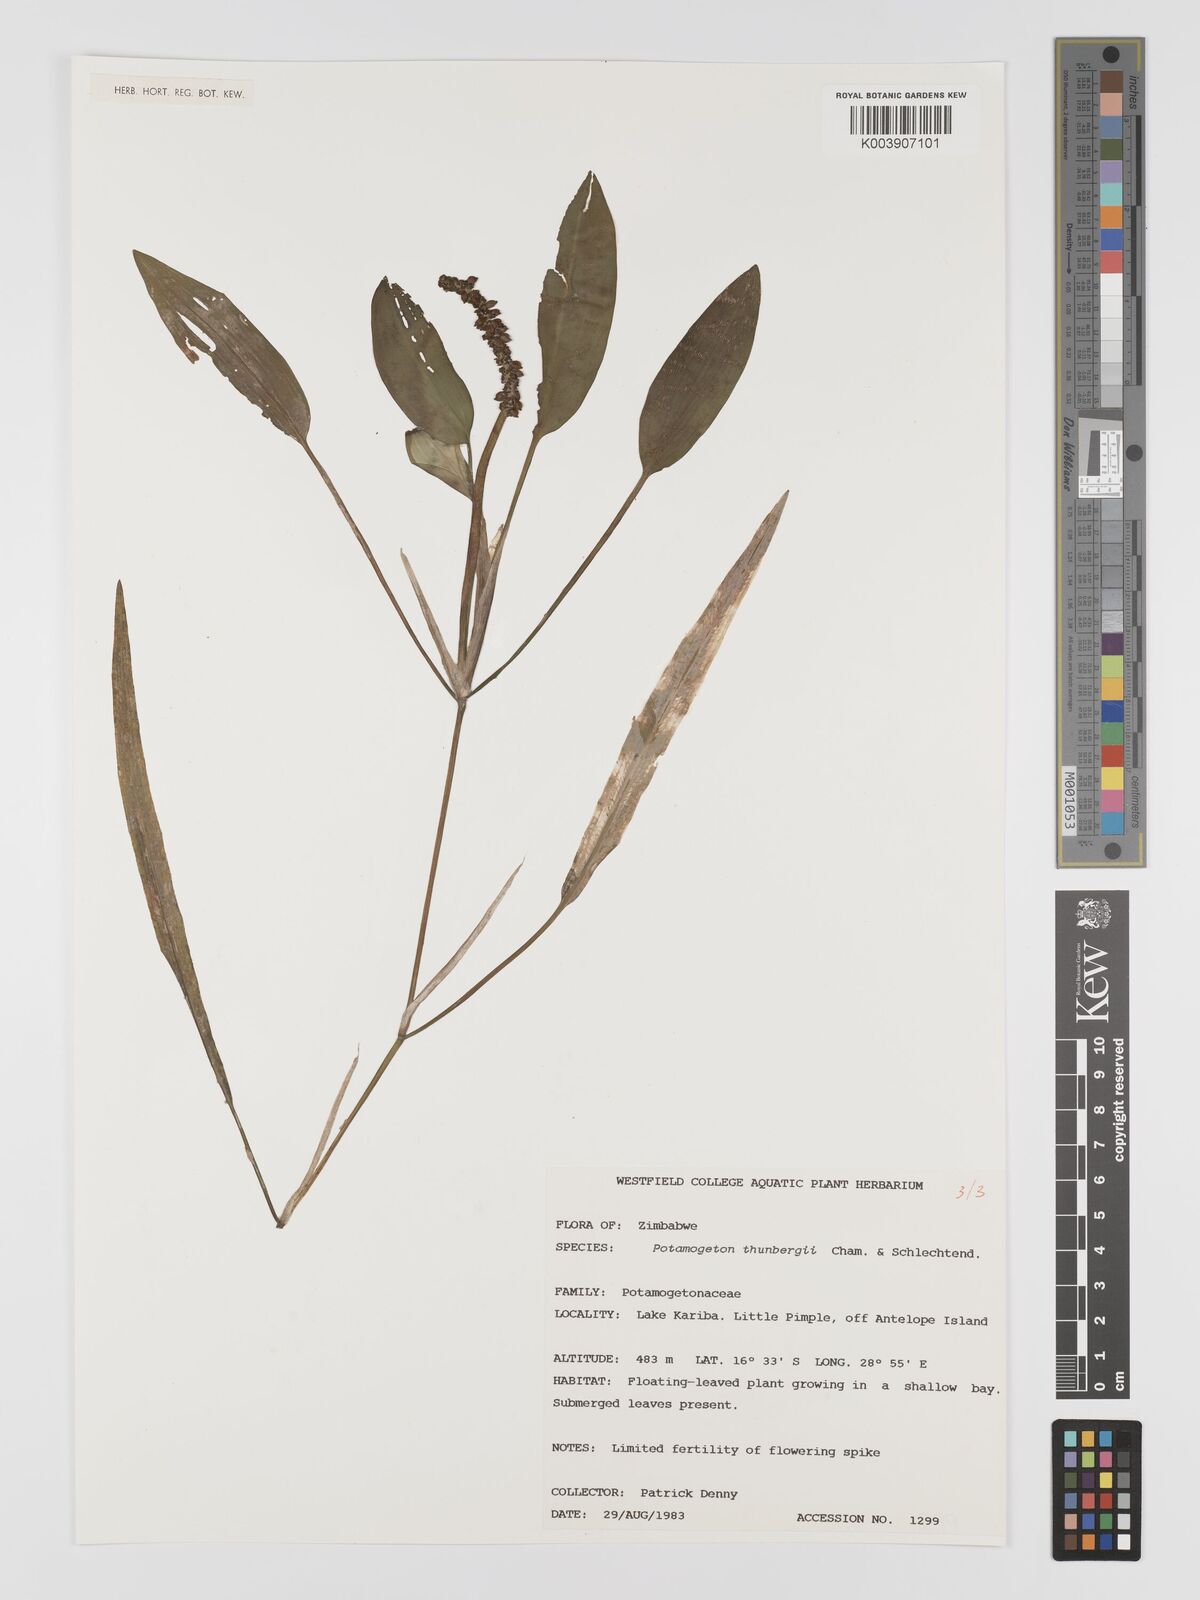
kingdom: Plantae
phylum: Tracheophyta
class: Liliopsida
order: Alismatales
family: Potamogetonaceae
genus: Potamogeton
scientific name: Potamogeton nodosus
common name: Loddon pondweed
